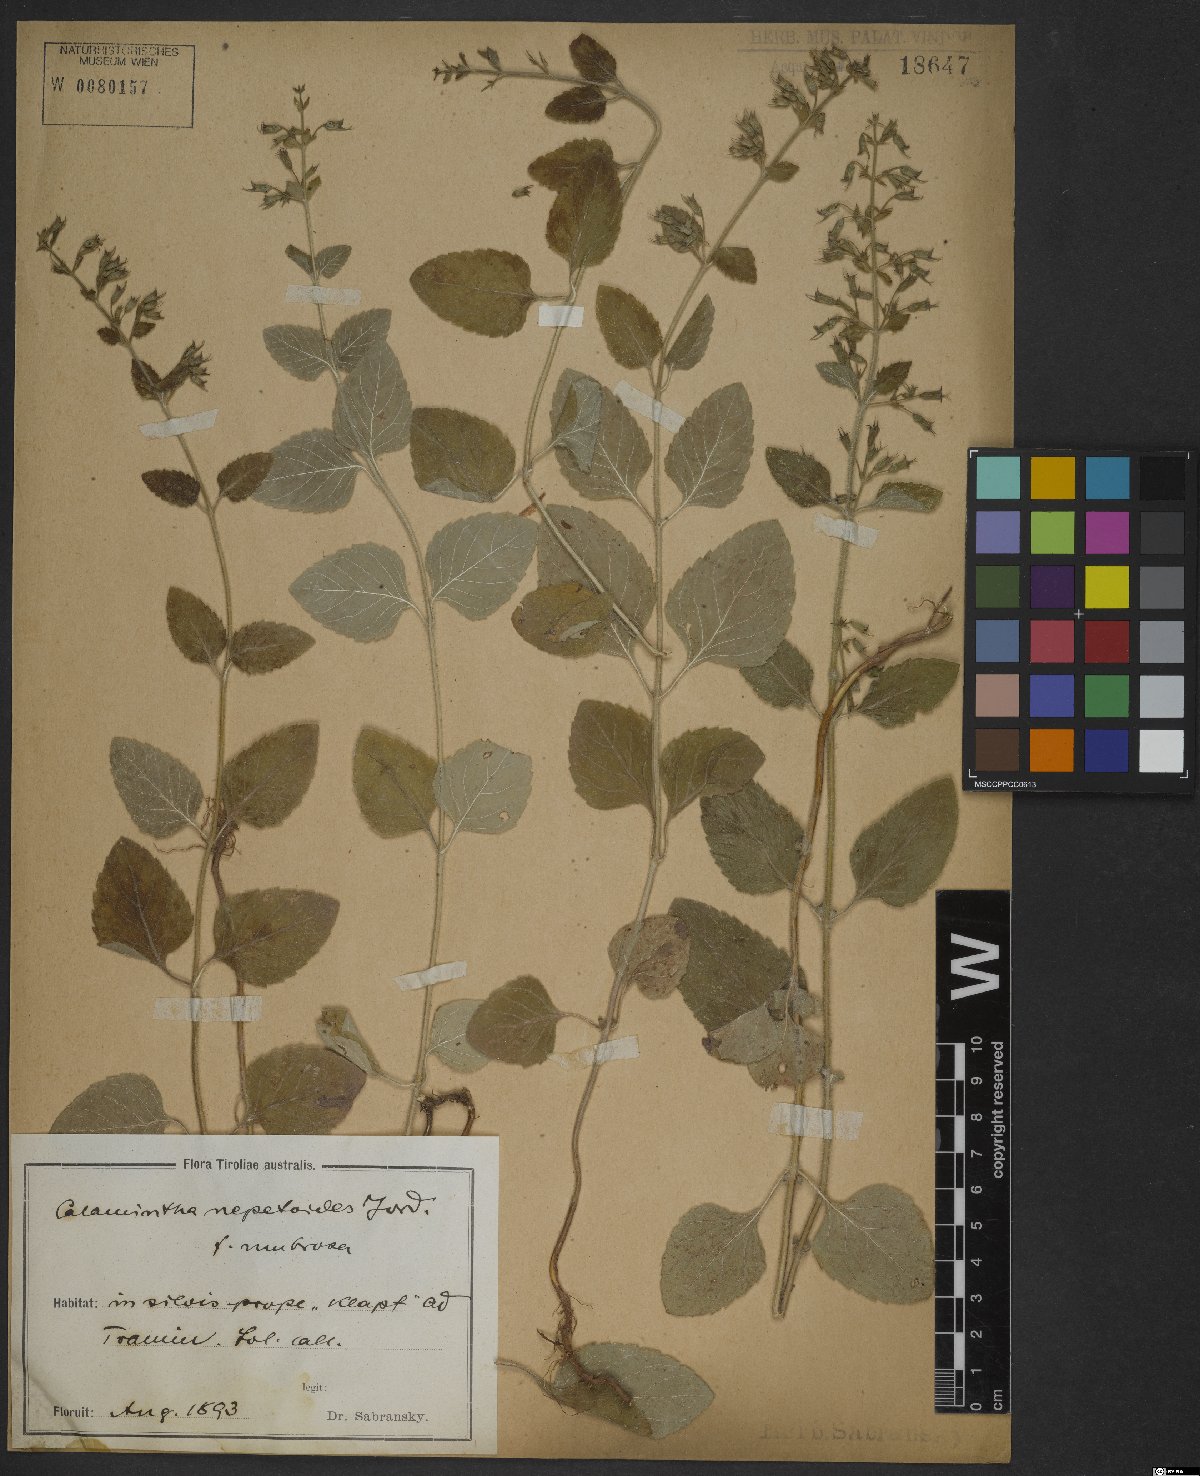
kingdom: Plantae
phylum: Tracheophyta
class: Magnoliopsida
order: Lamiales
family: Lamiaceae
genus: Clinopodium
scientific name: Clinopodium nepeta
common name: Lesser calamint
